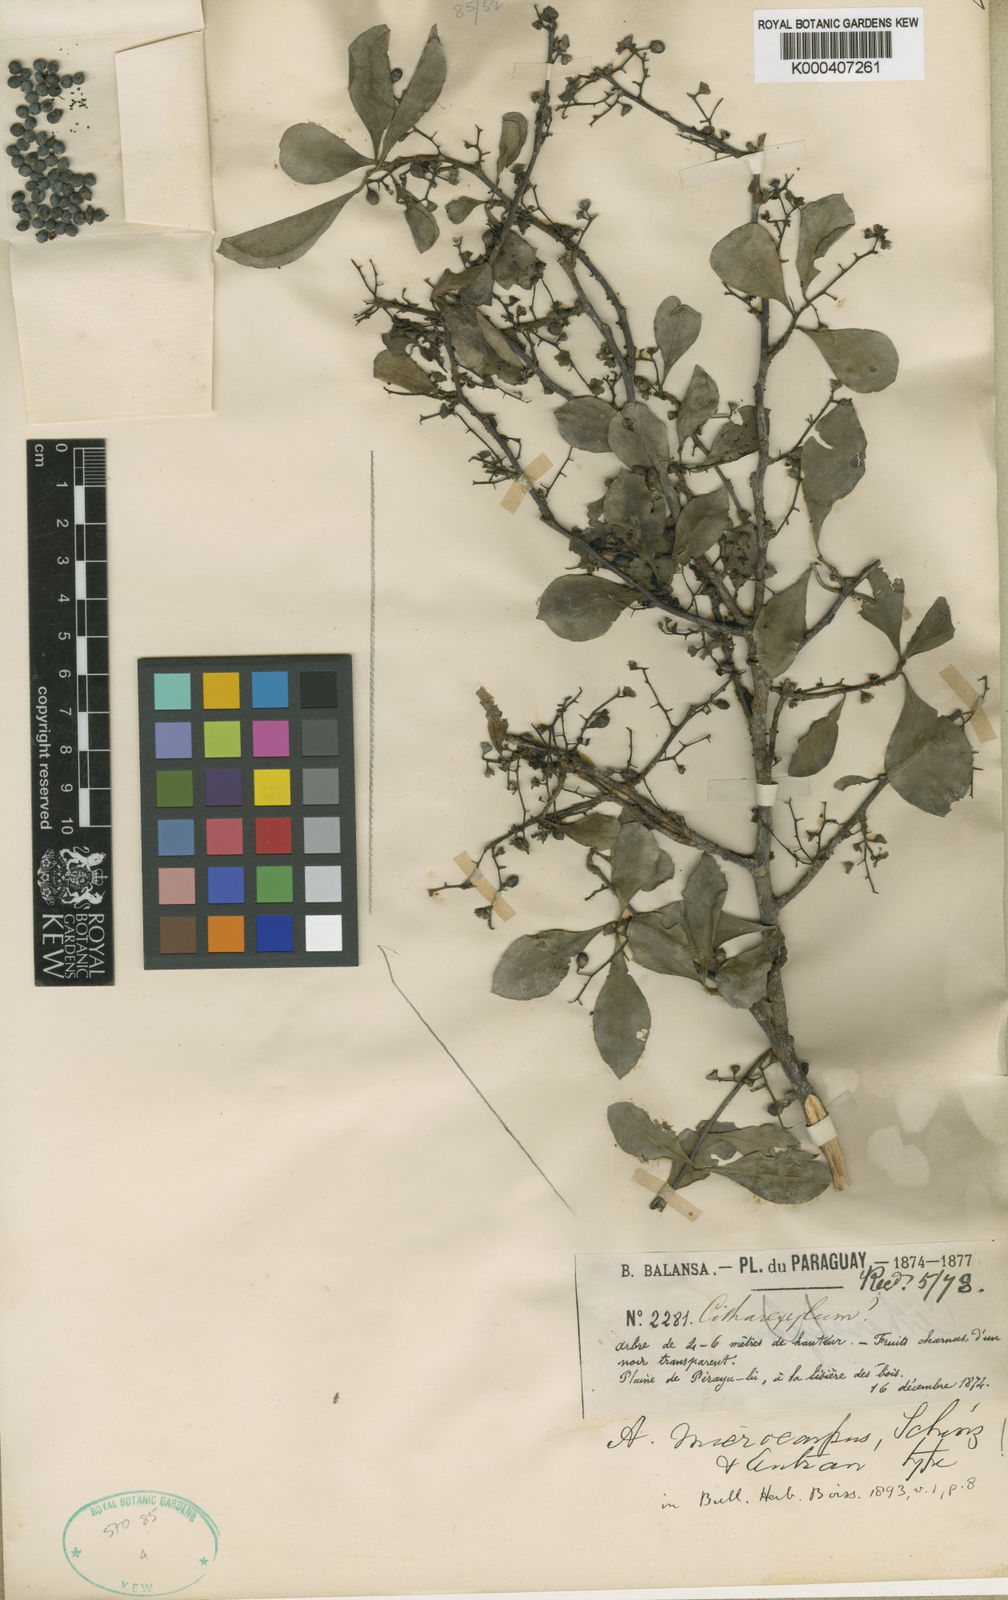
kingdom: Plantae
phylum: Tracheophyta
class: Magnoliopsida
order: Caryophyllales
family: Achatocarpaceae
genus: Achatocarpus
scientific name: Achatocarpus microcarpus
